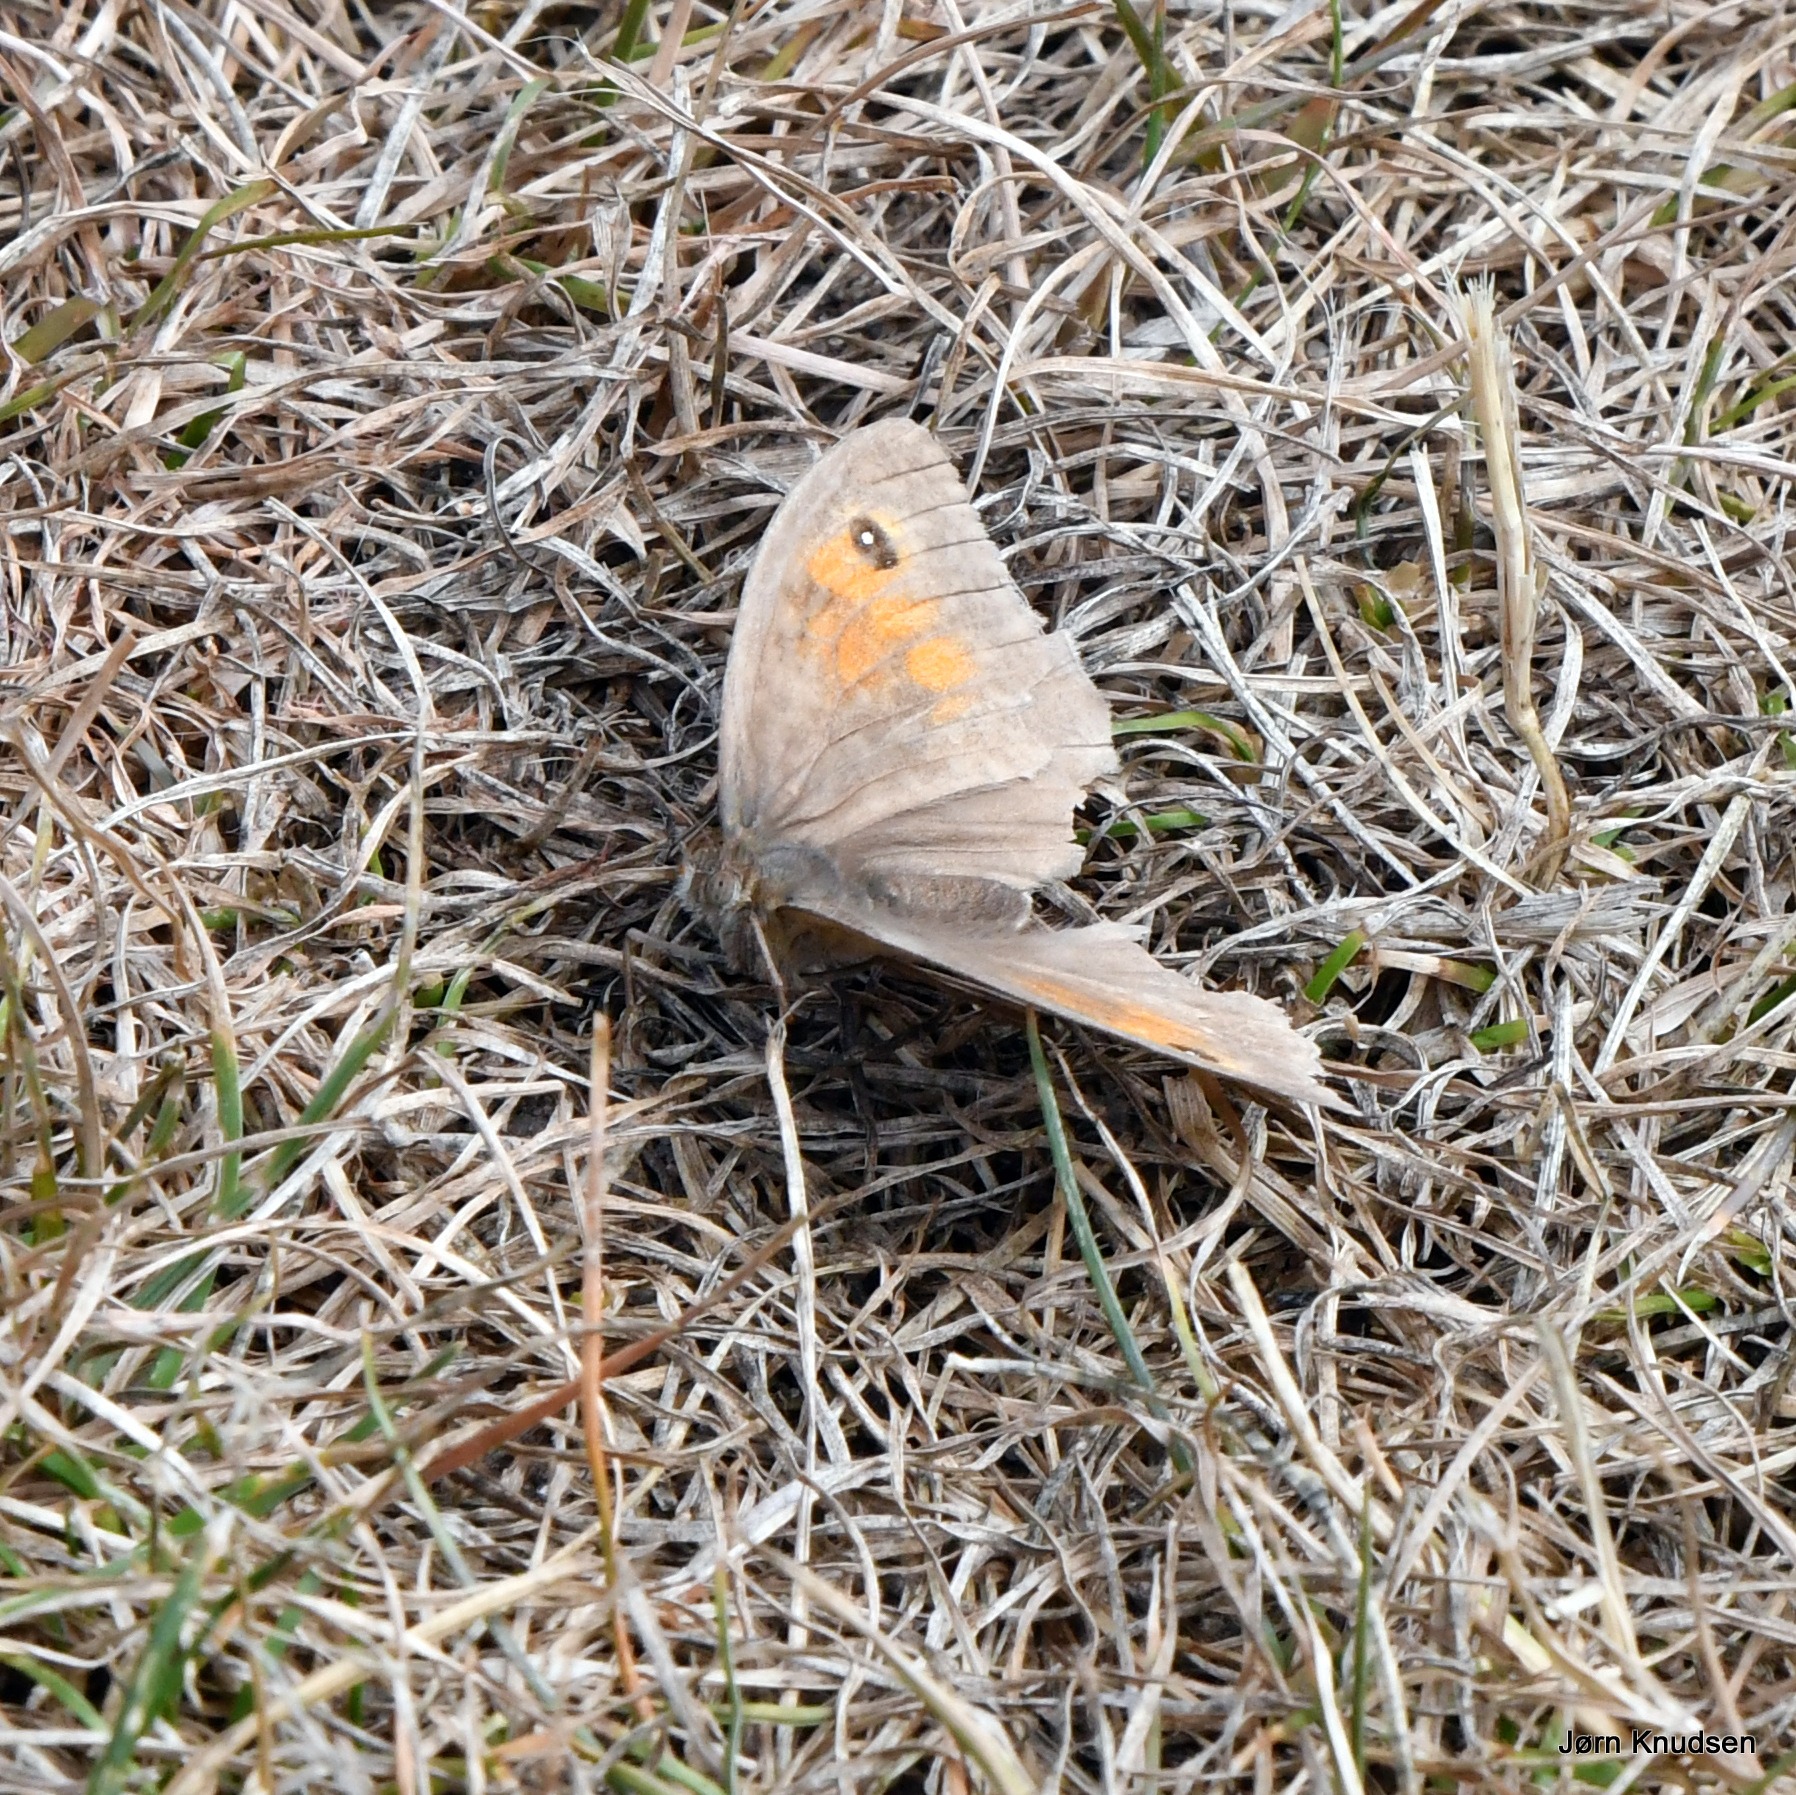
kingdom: Animalia
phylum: Arthropoda
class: Insecta
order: Lepidoptera
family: Nymphalidae
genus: Maniola
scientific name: Maniola jurtina
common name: Græsrandøje
